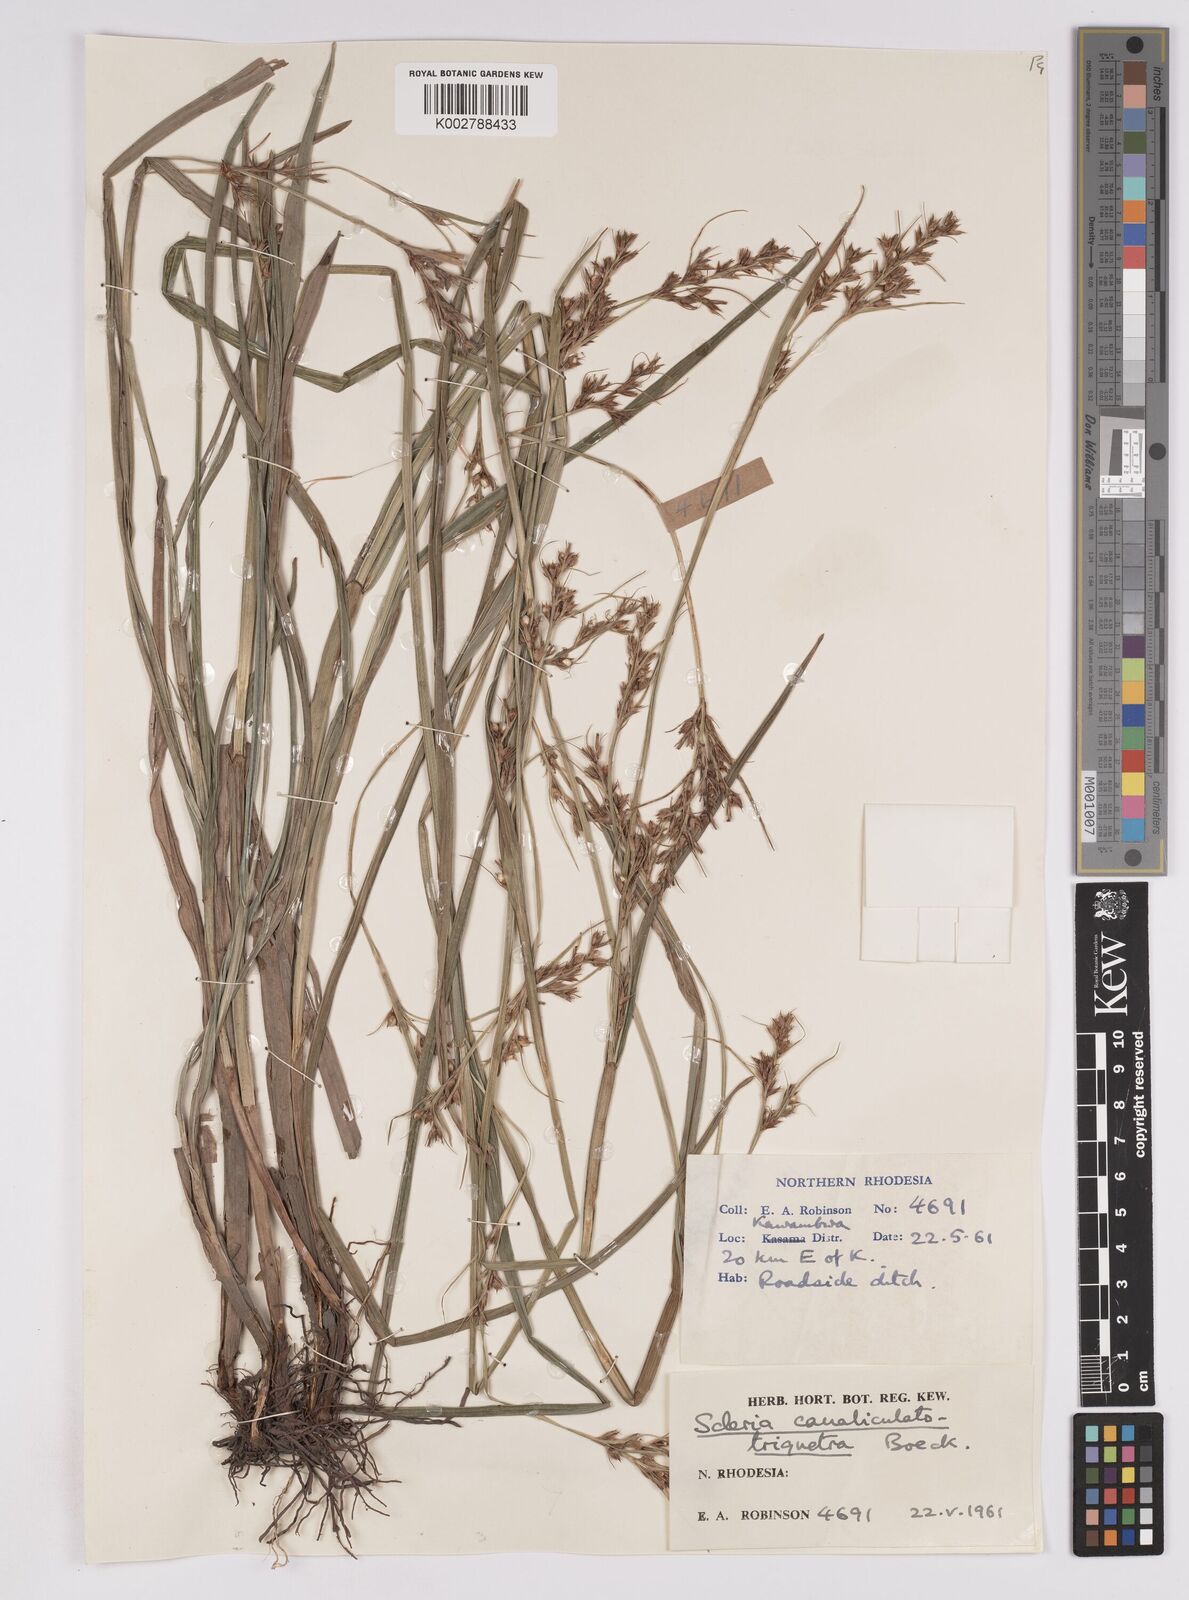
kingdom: Plantae
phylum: Tracheophyta
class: Liliopsida
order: Poales
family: Cyperaceae
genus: Scleria
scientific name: Scleria lagoensis
